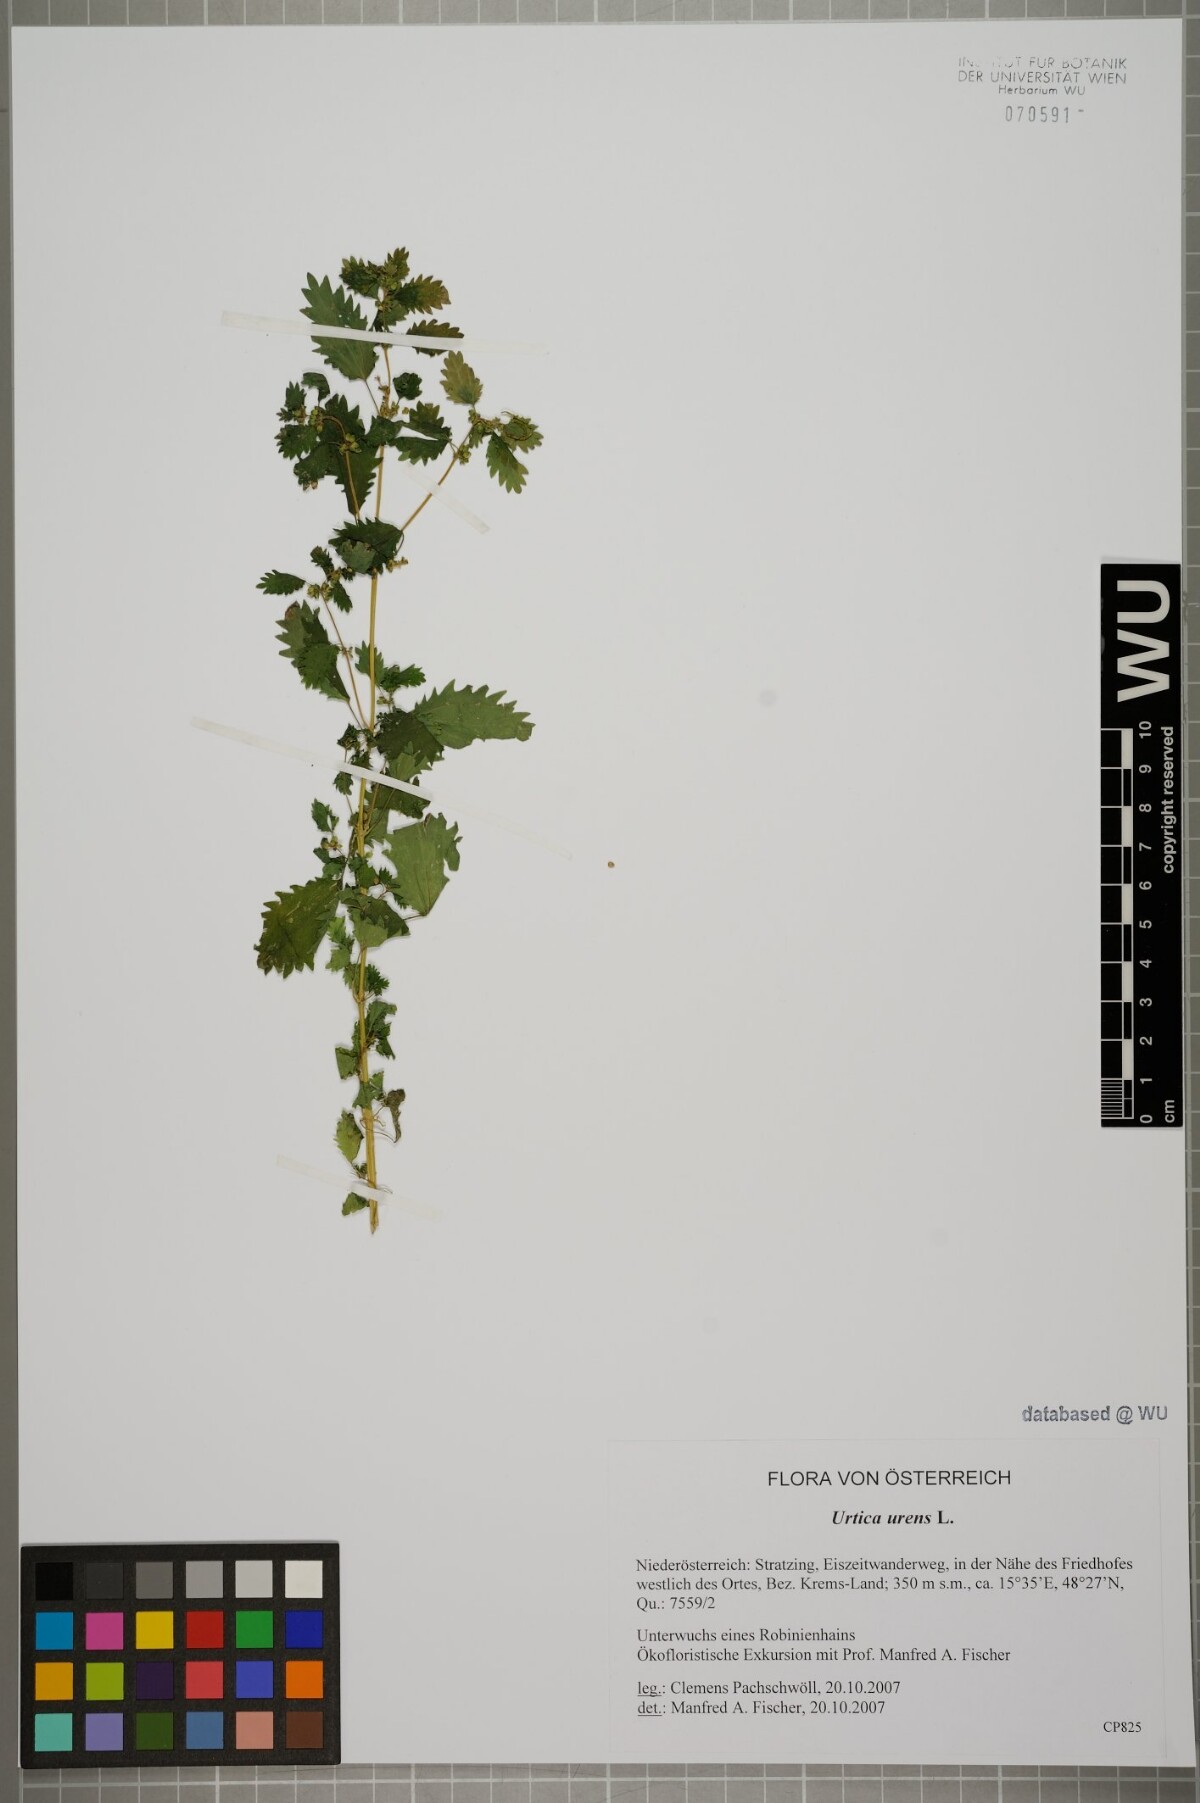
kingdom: Plantae
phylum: Tracheophyta
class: Magnoliopsida
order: Rosales
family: Urticaceae
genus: Urtica
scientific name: Urtica urens
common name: Dwarf nettle
